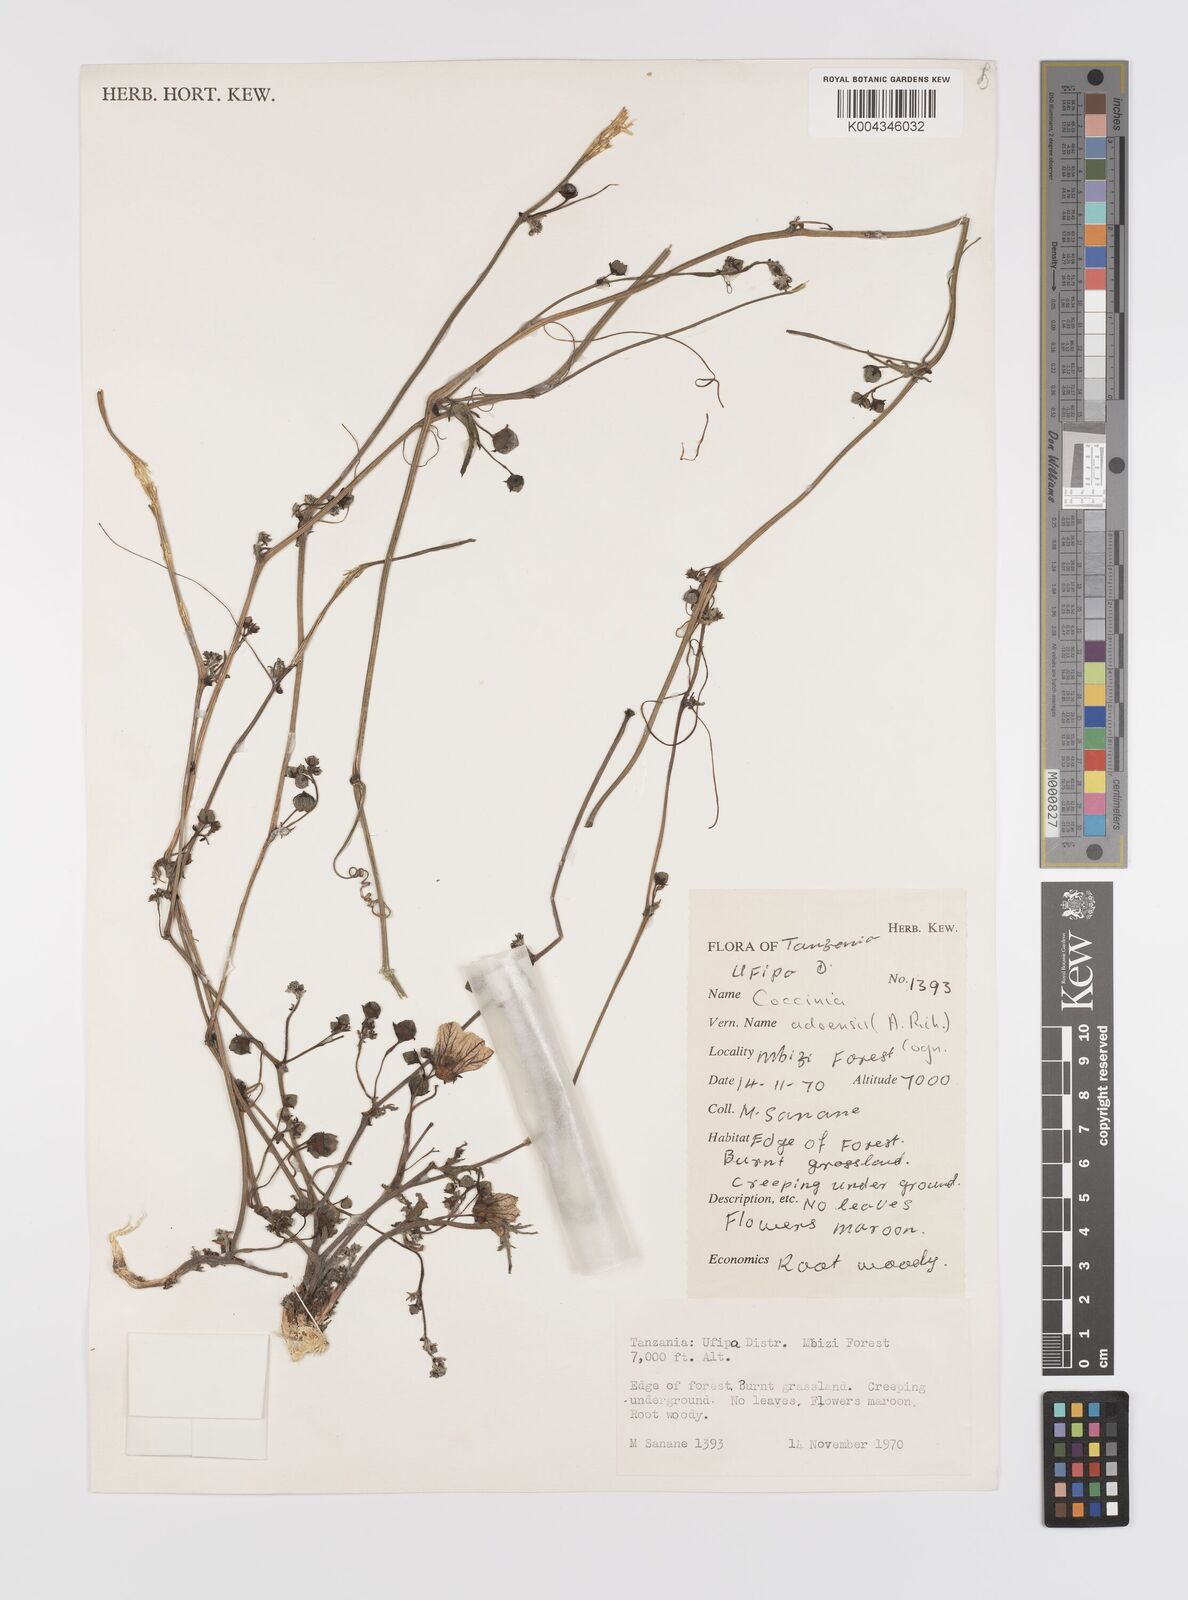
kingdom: Plantae
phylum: Tracheophyta
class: Magnoliopsida
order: Cucurbitales
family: Cucurbitaceae
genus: Coccinia
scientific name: Coccinia adoensis
